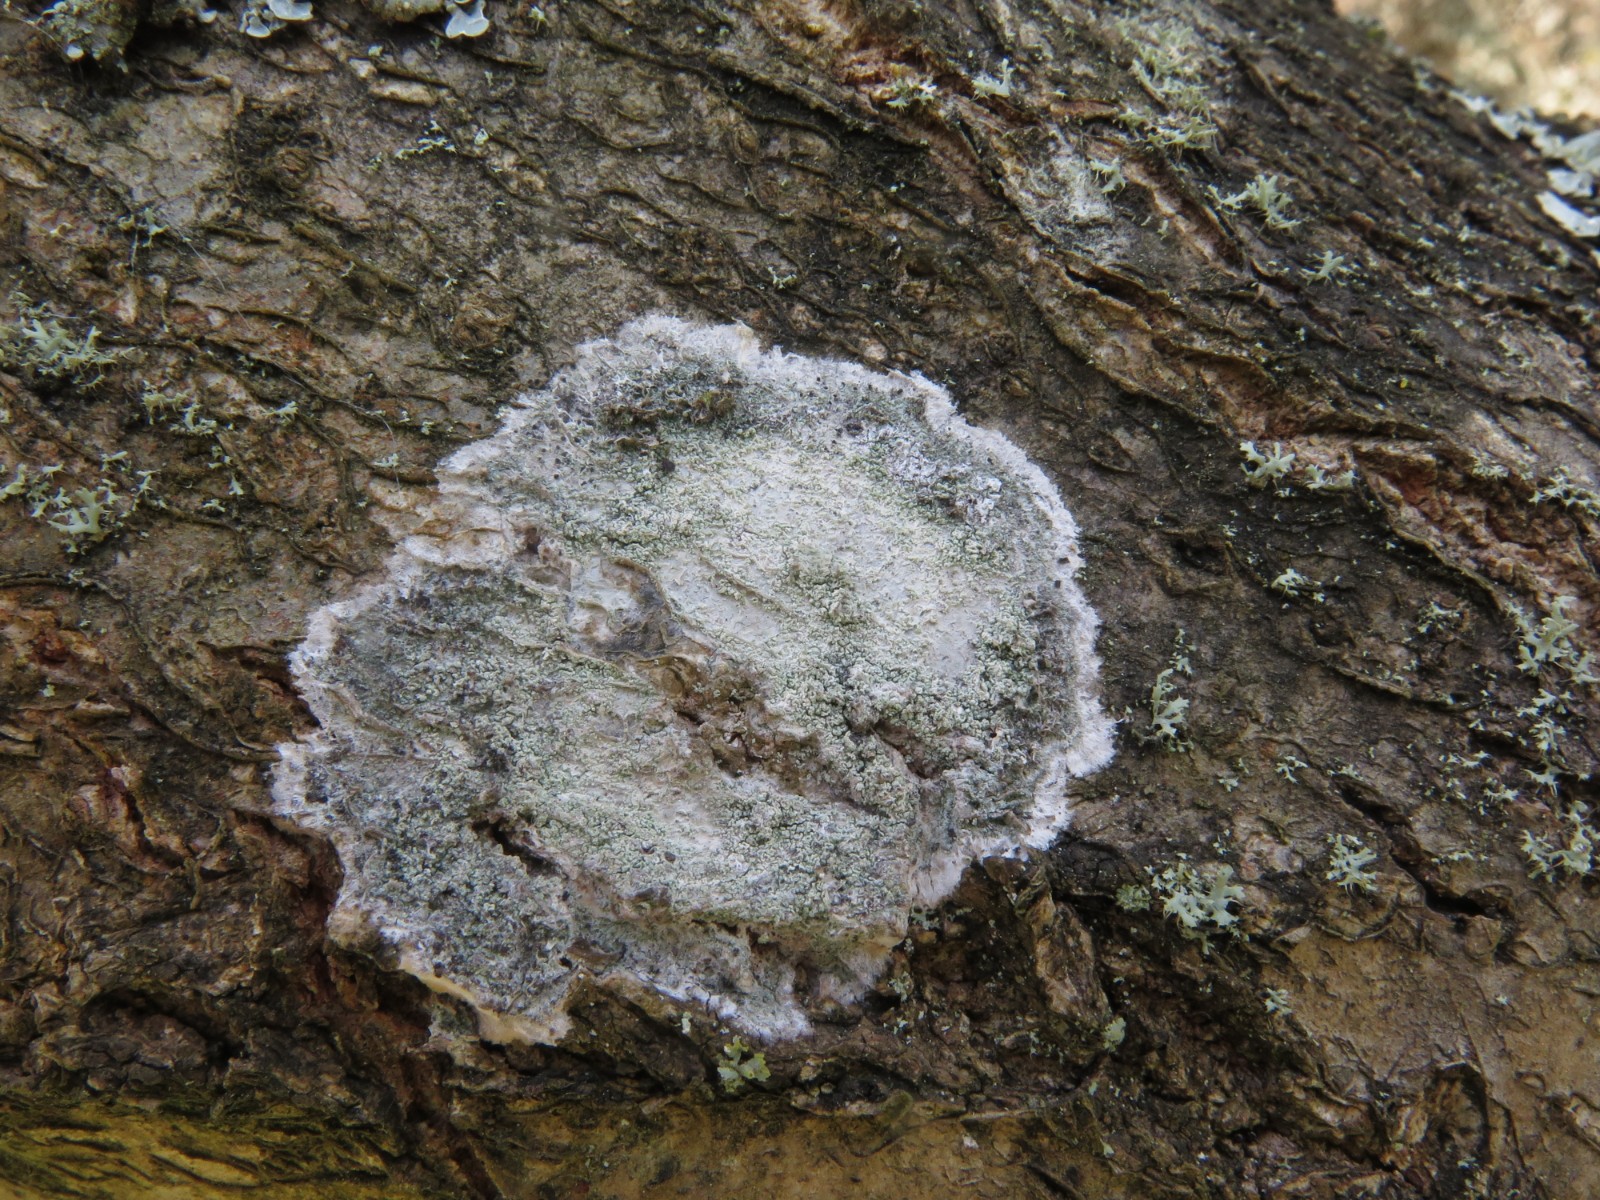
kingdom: Fungi
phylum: Ascomycota
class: Lecanoromycetes
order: Ostropales
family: Phlyctidaceae
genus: Phlyctis
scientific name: Phlyctis argena
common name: almindelig sølvlav
